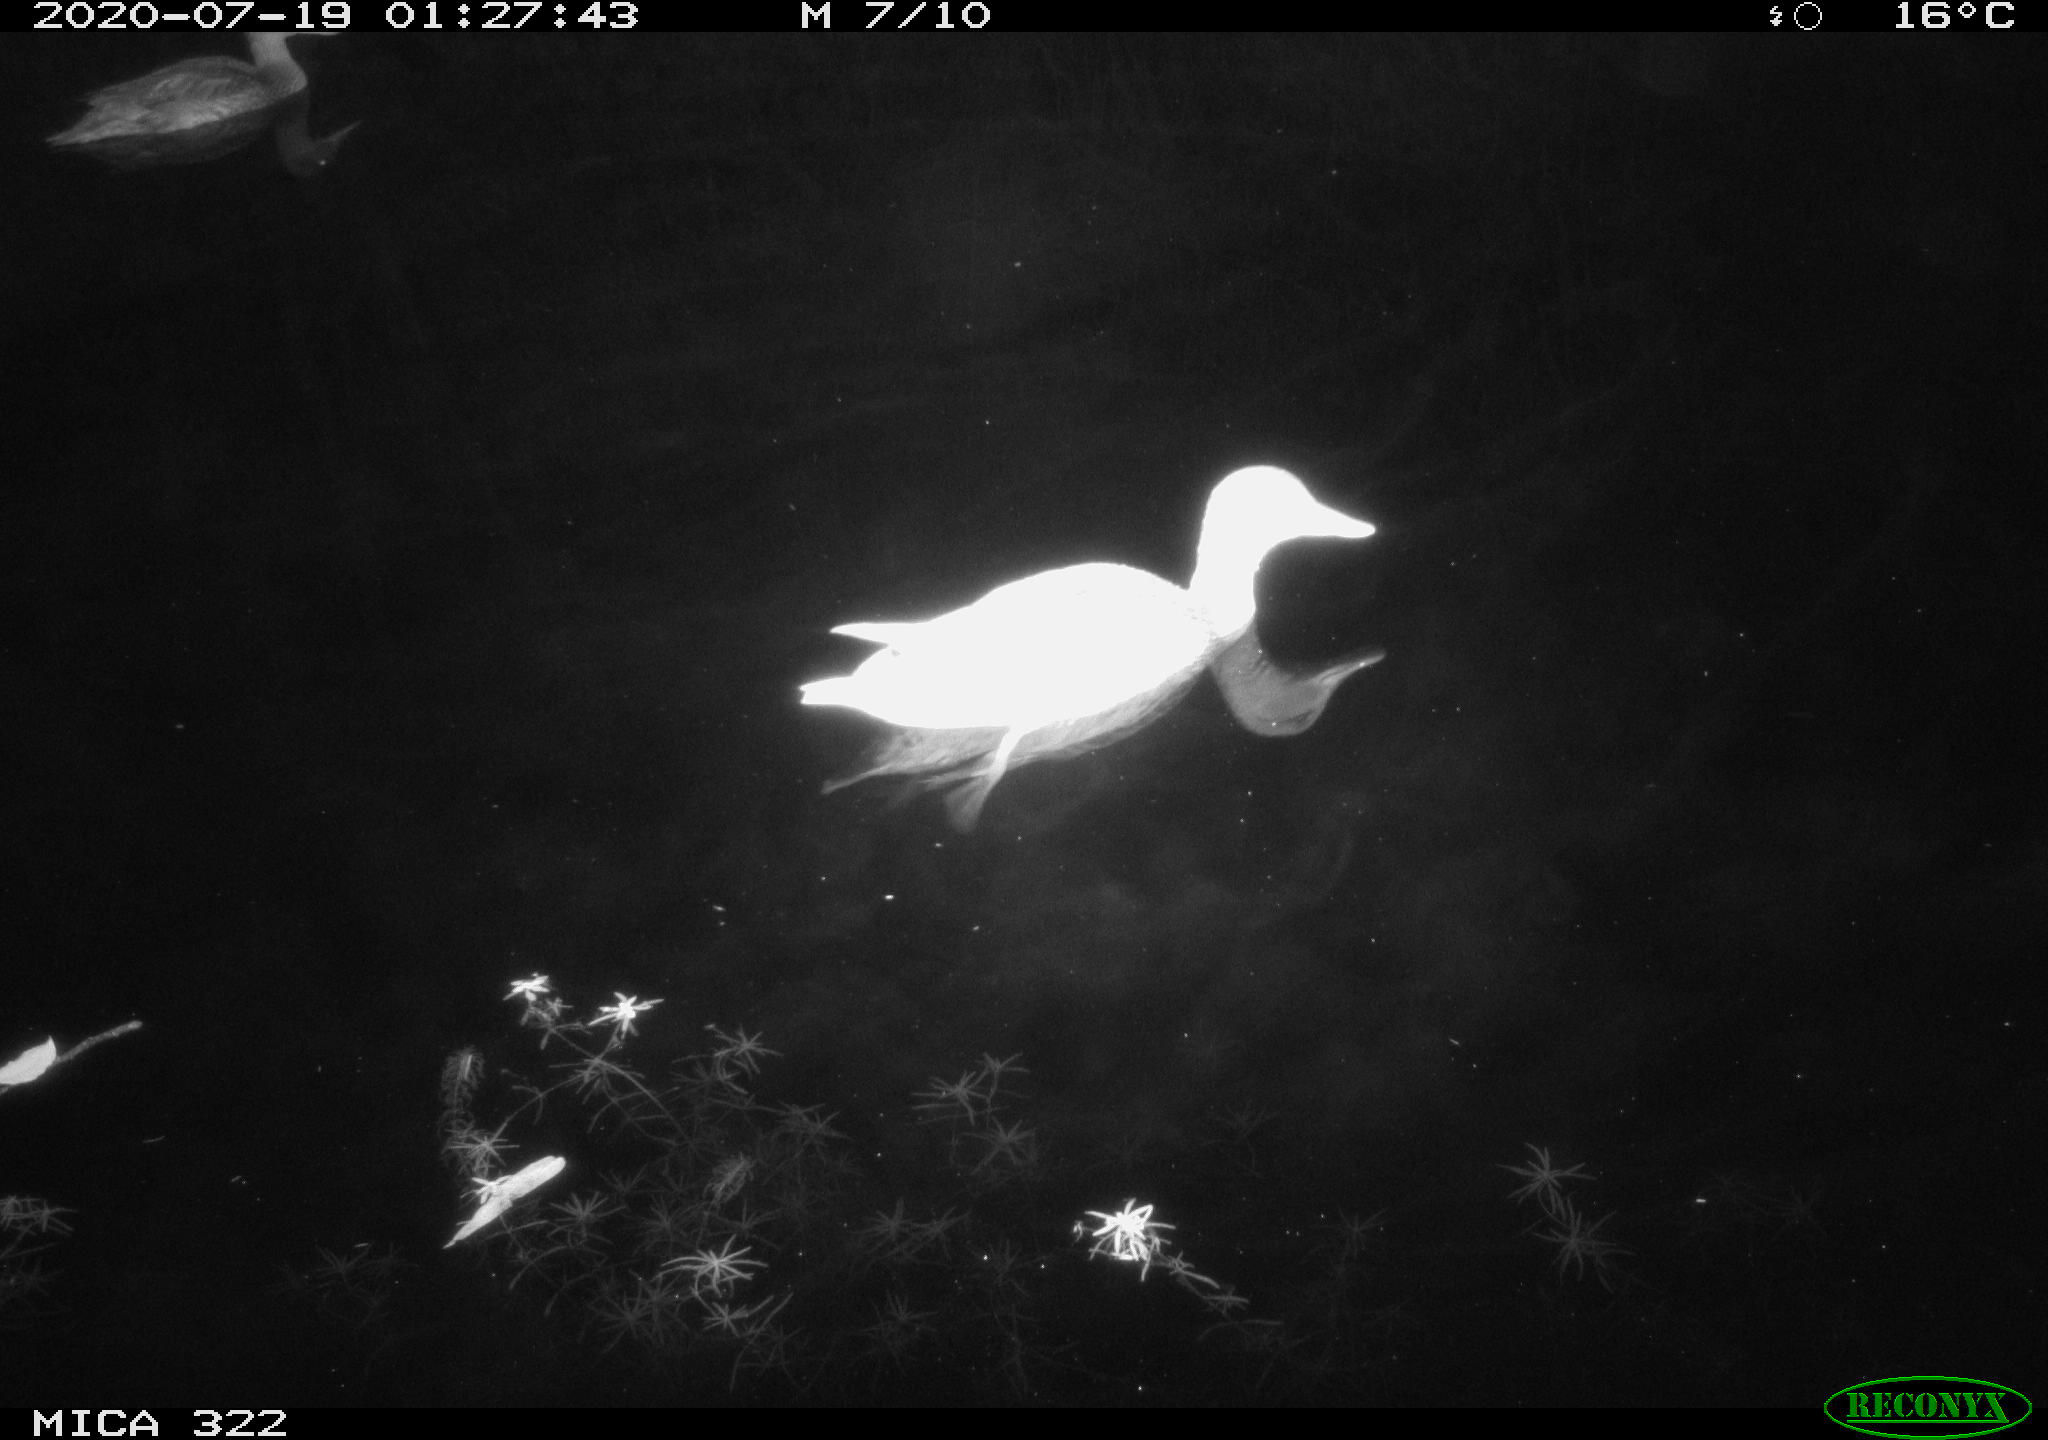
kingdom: Animalia
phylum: Chordata
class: Aves
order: Anseriformes
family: Anatidae
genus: Anas
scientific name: Anas platyrhynchos
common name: Mallard
